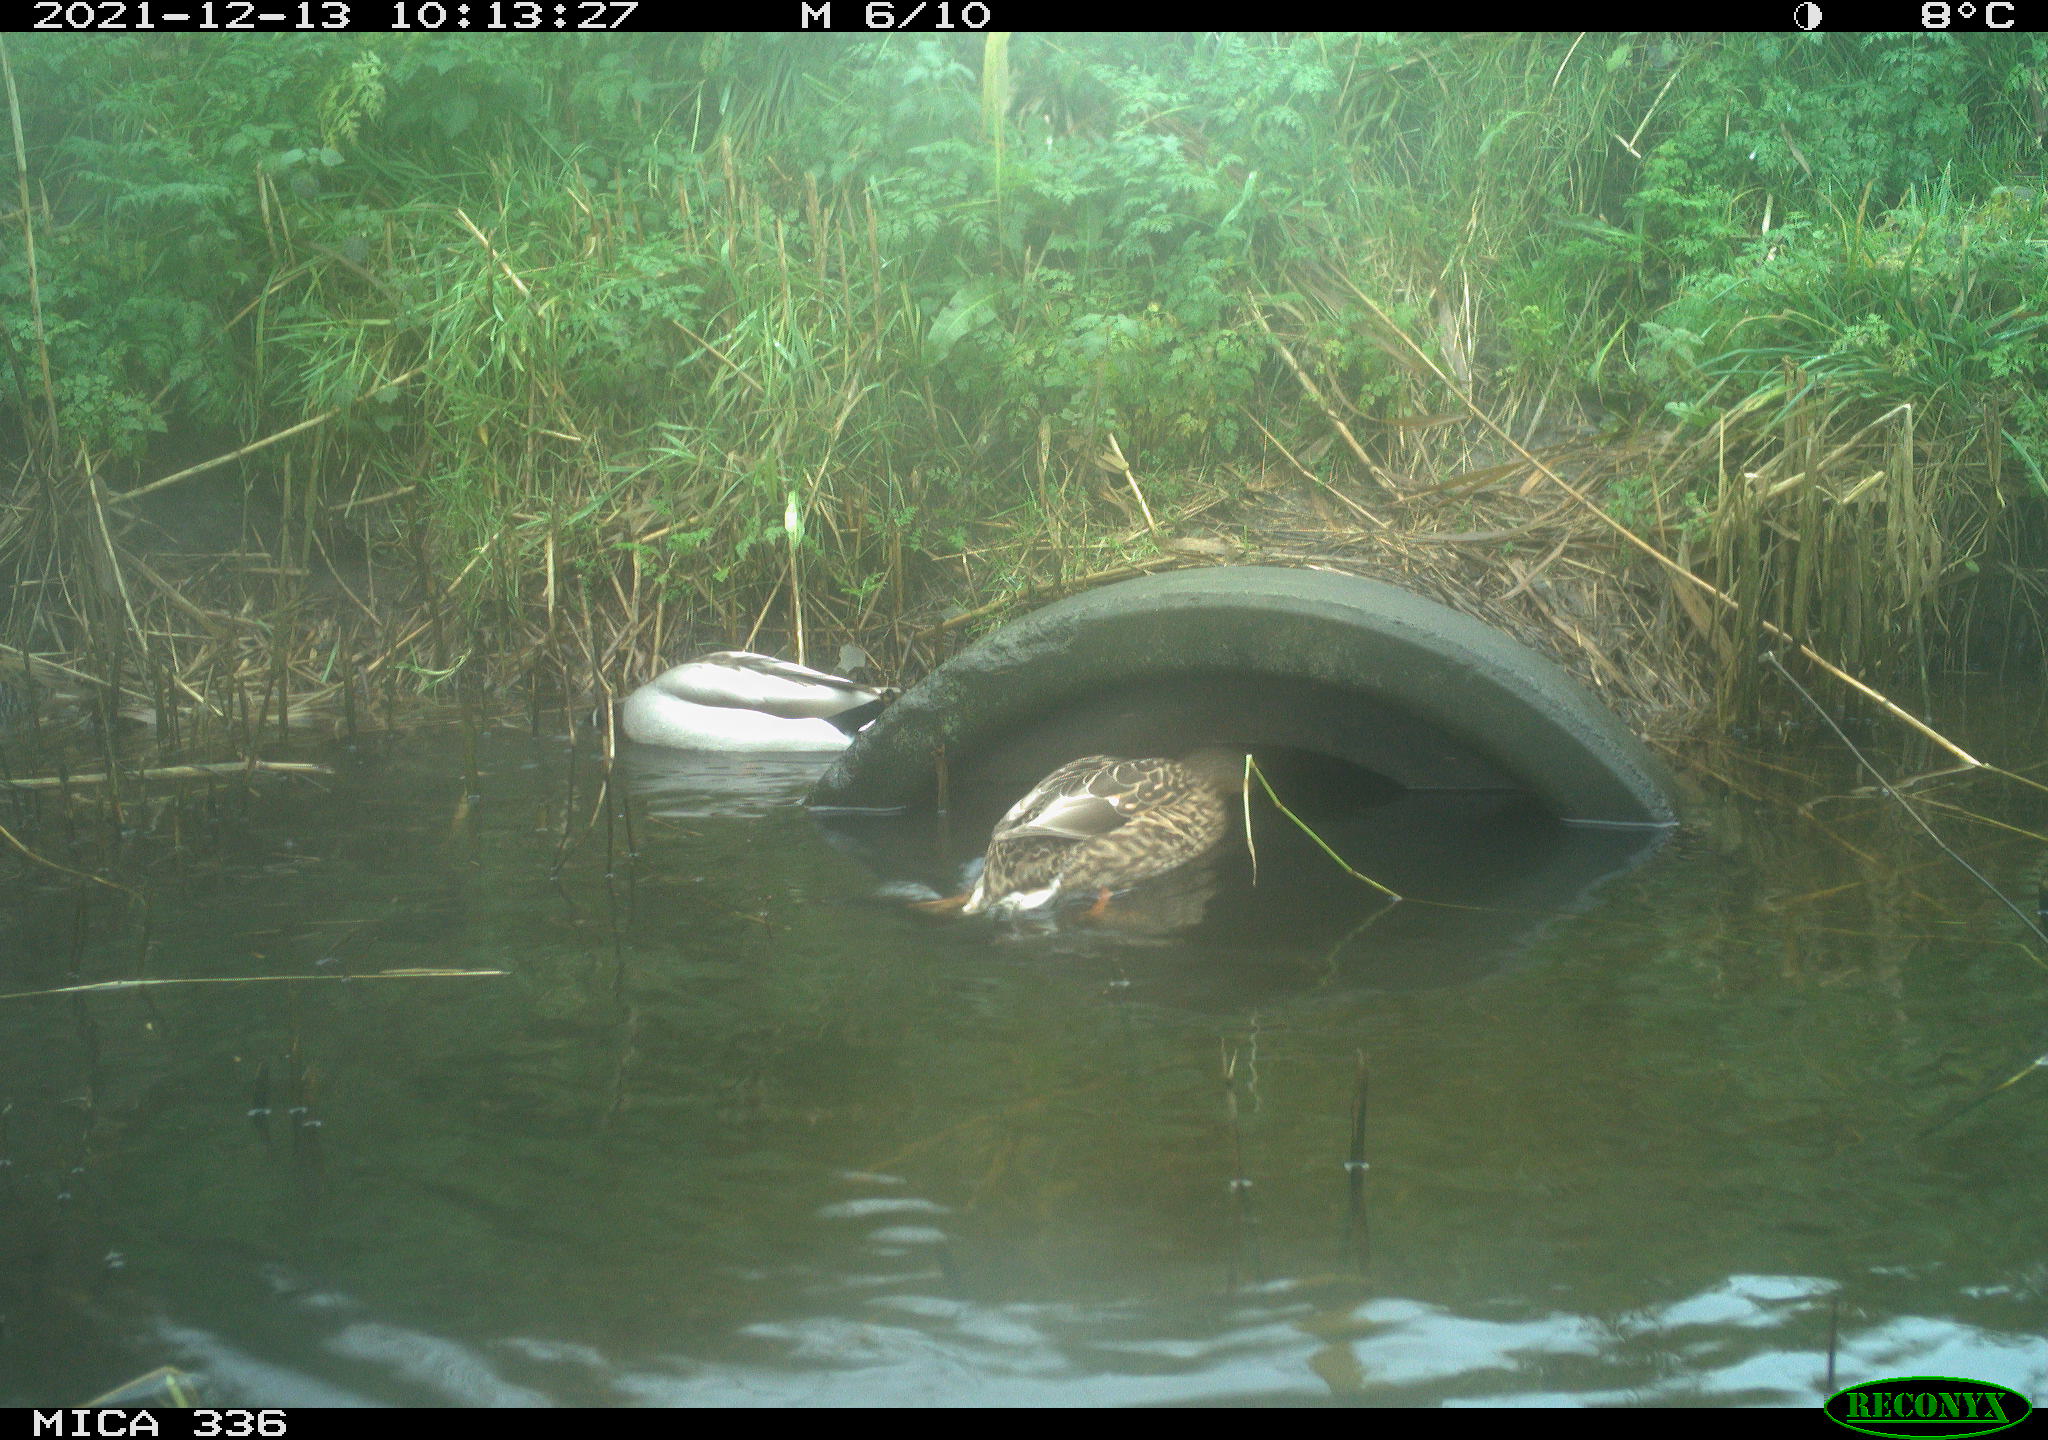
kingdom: Animalia
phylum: Chordata
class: Aves
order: Anseriformes
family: Anatidae
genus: Anas
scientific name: Anas platyrhynchos
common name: Mallard
